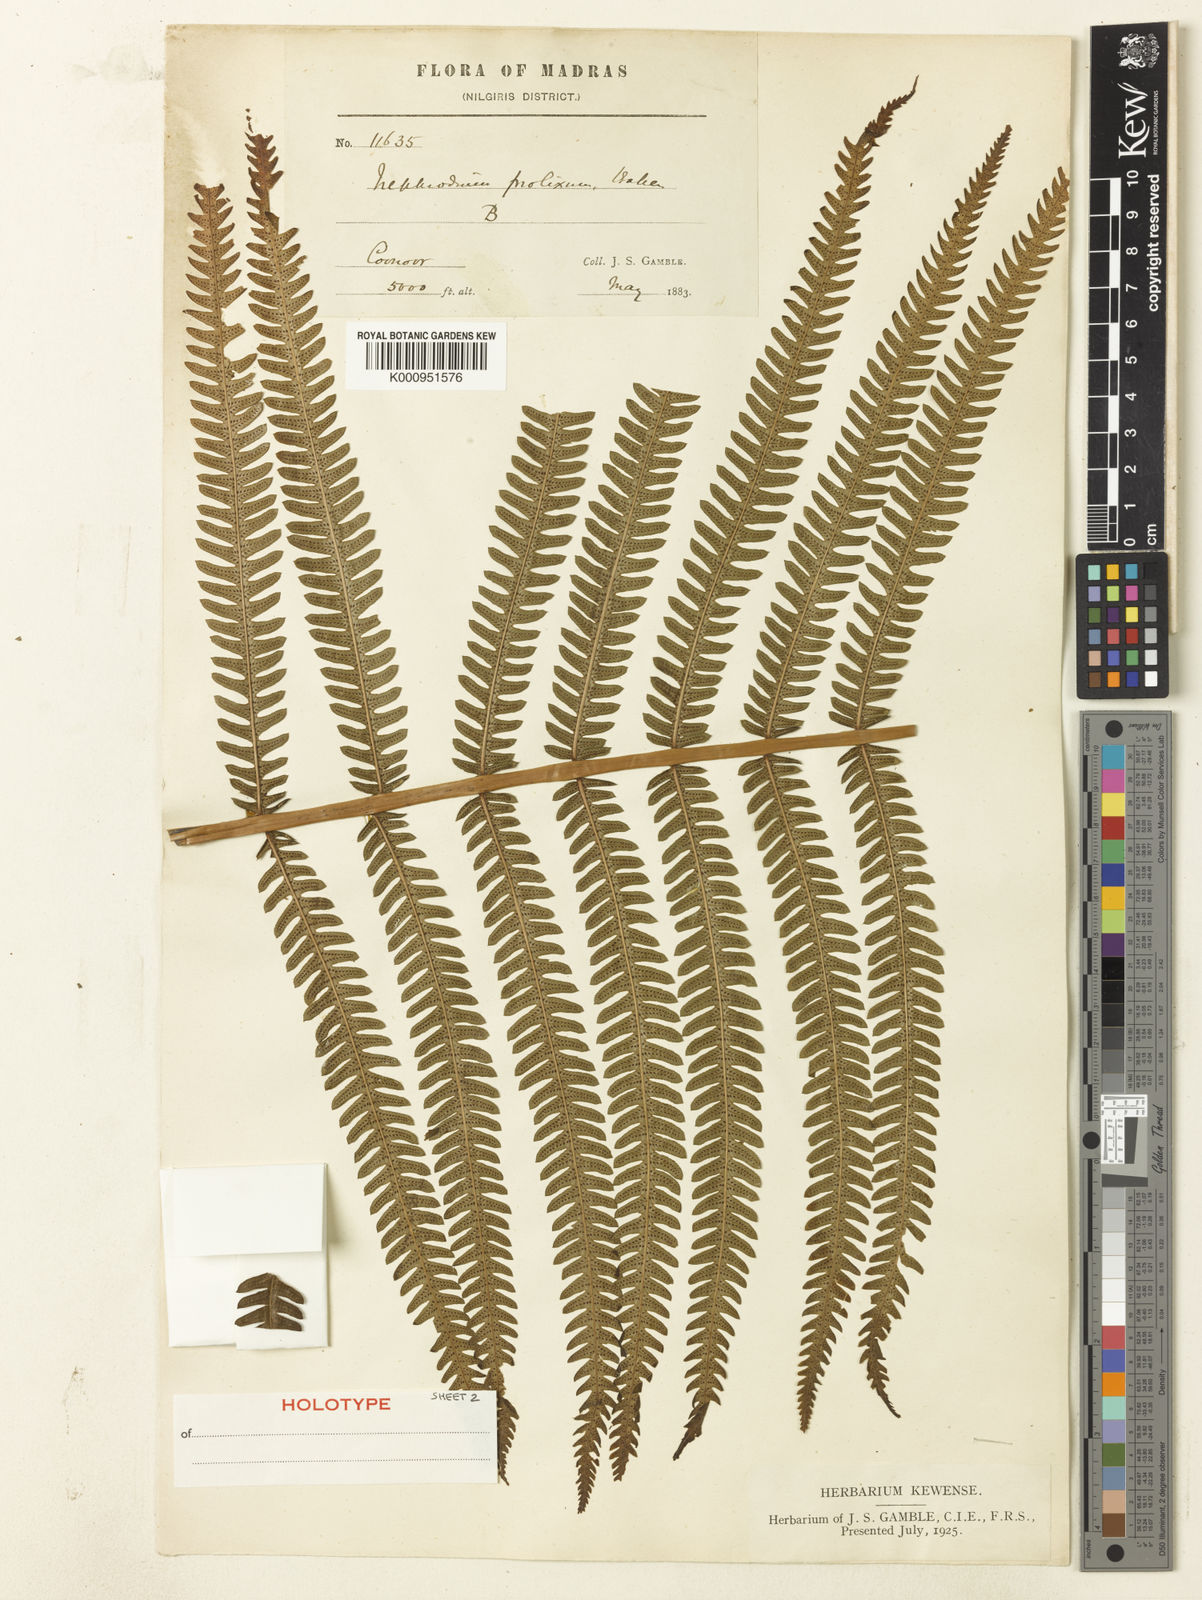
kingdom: Plantae
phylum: Tracheophyta
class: Polypodiopsida
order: Polypodiales
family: Thelypteridaceae
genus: Pseudocyclosorus
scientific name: Pseudocyclosorus tylodes
